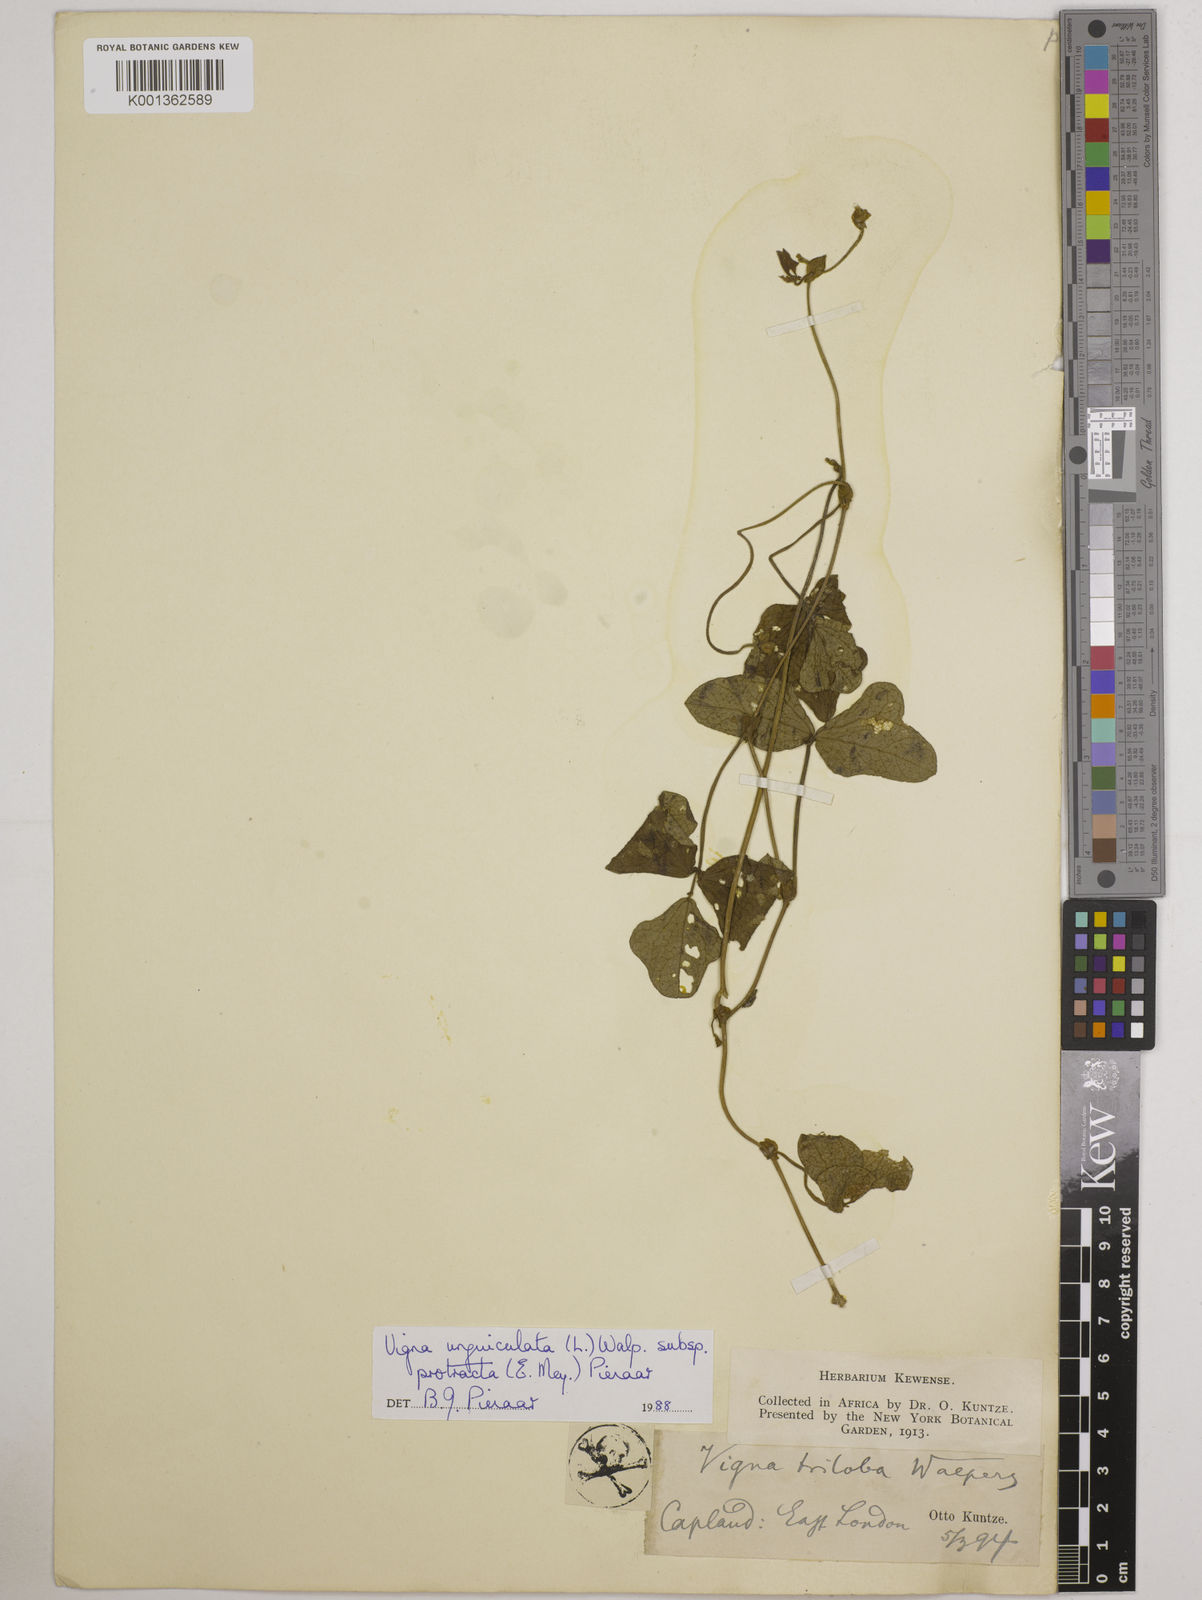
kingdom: Plantae
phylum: Tracheophyta
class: Magnoliopsida
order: Fabales
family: Fabaceae
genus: Vigna
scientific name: Vigna unguiculata
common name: Cowpea
